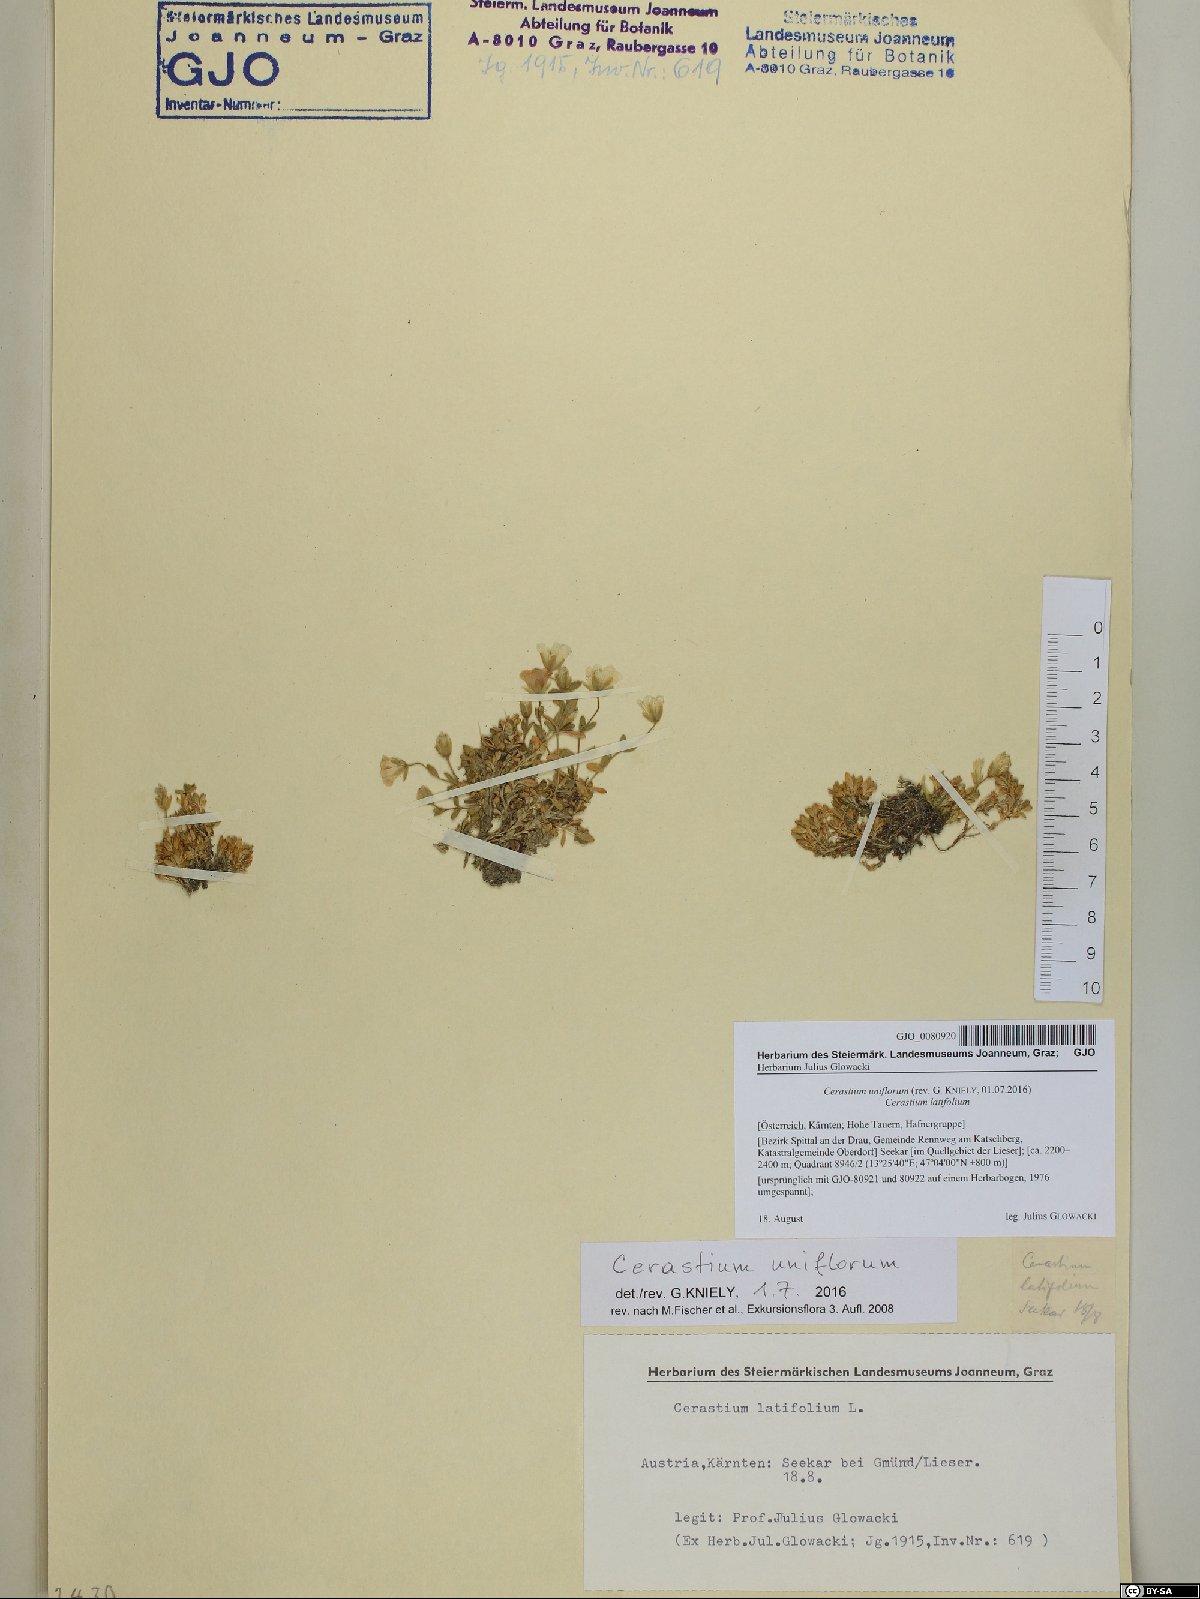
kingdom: Plantae
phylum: Tracheophyta
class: Magnoliopsida
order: Caryophyllales
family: Caryophyllaceae
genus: Cerastium
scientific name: Cerastium uniflorum
